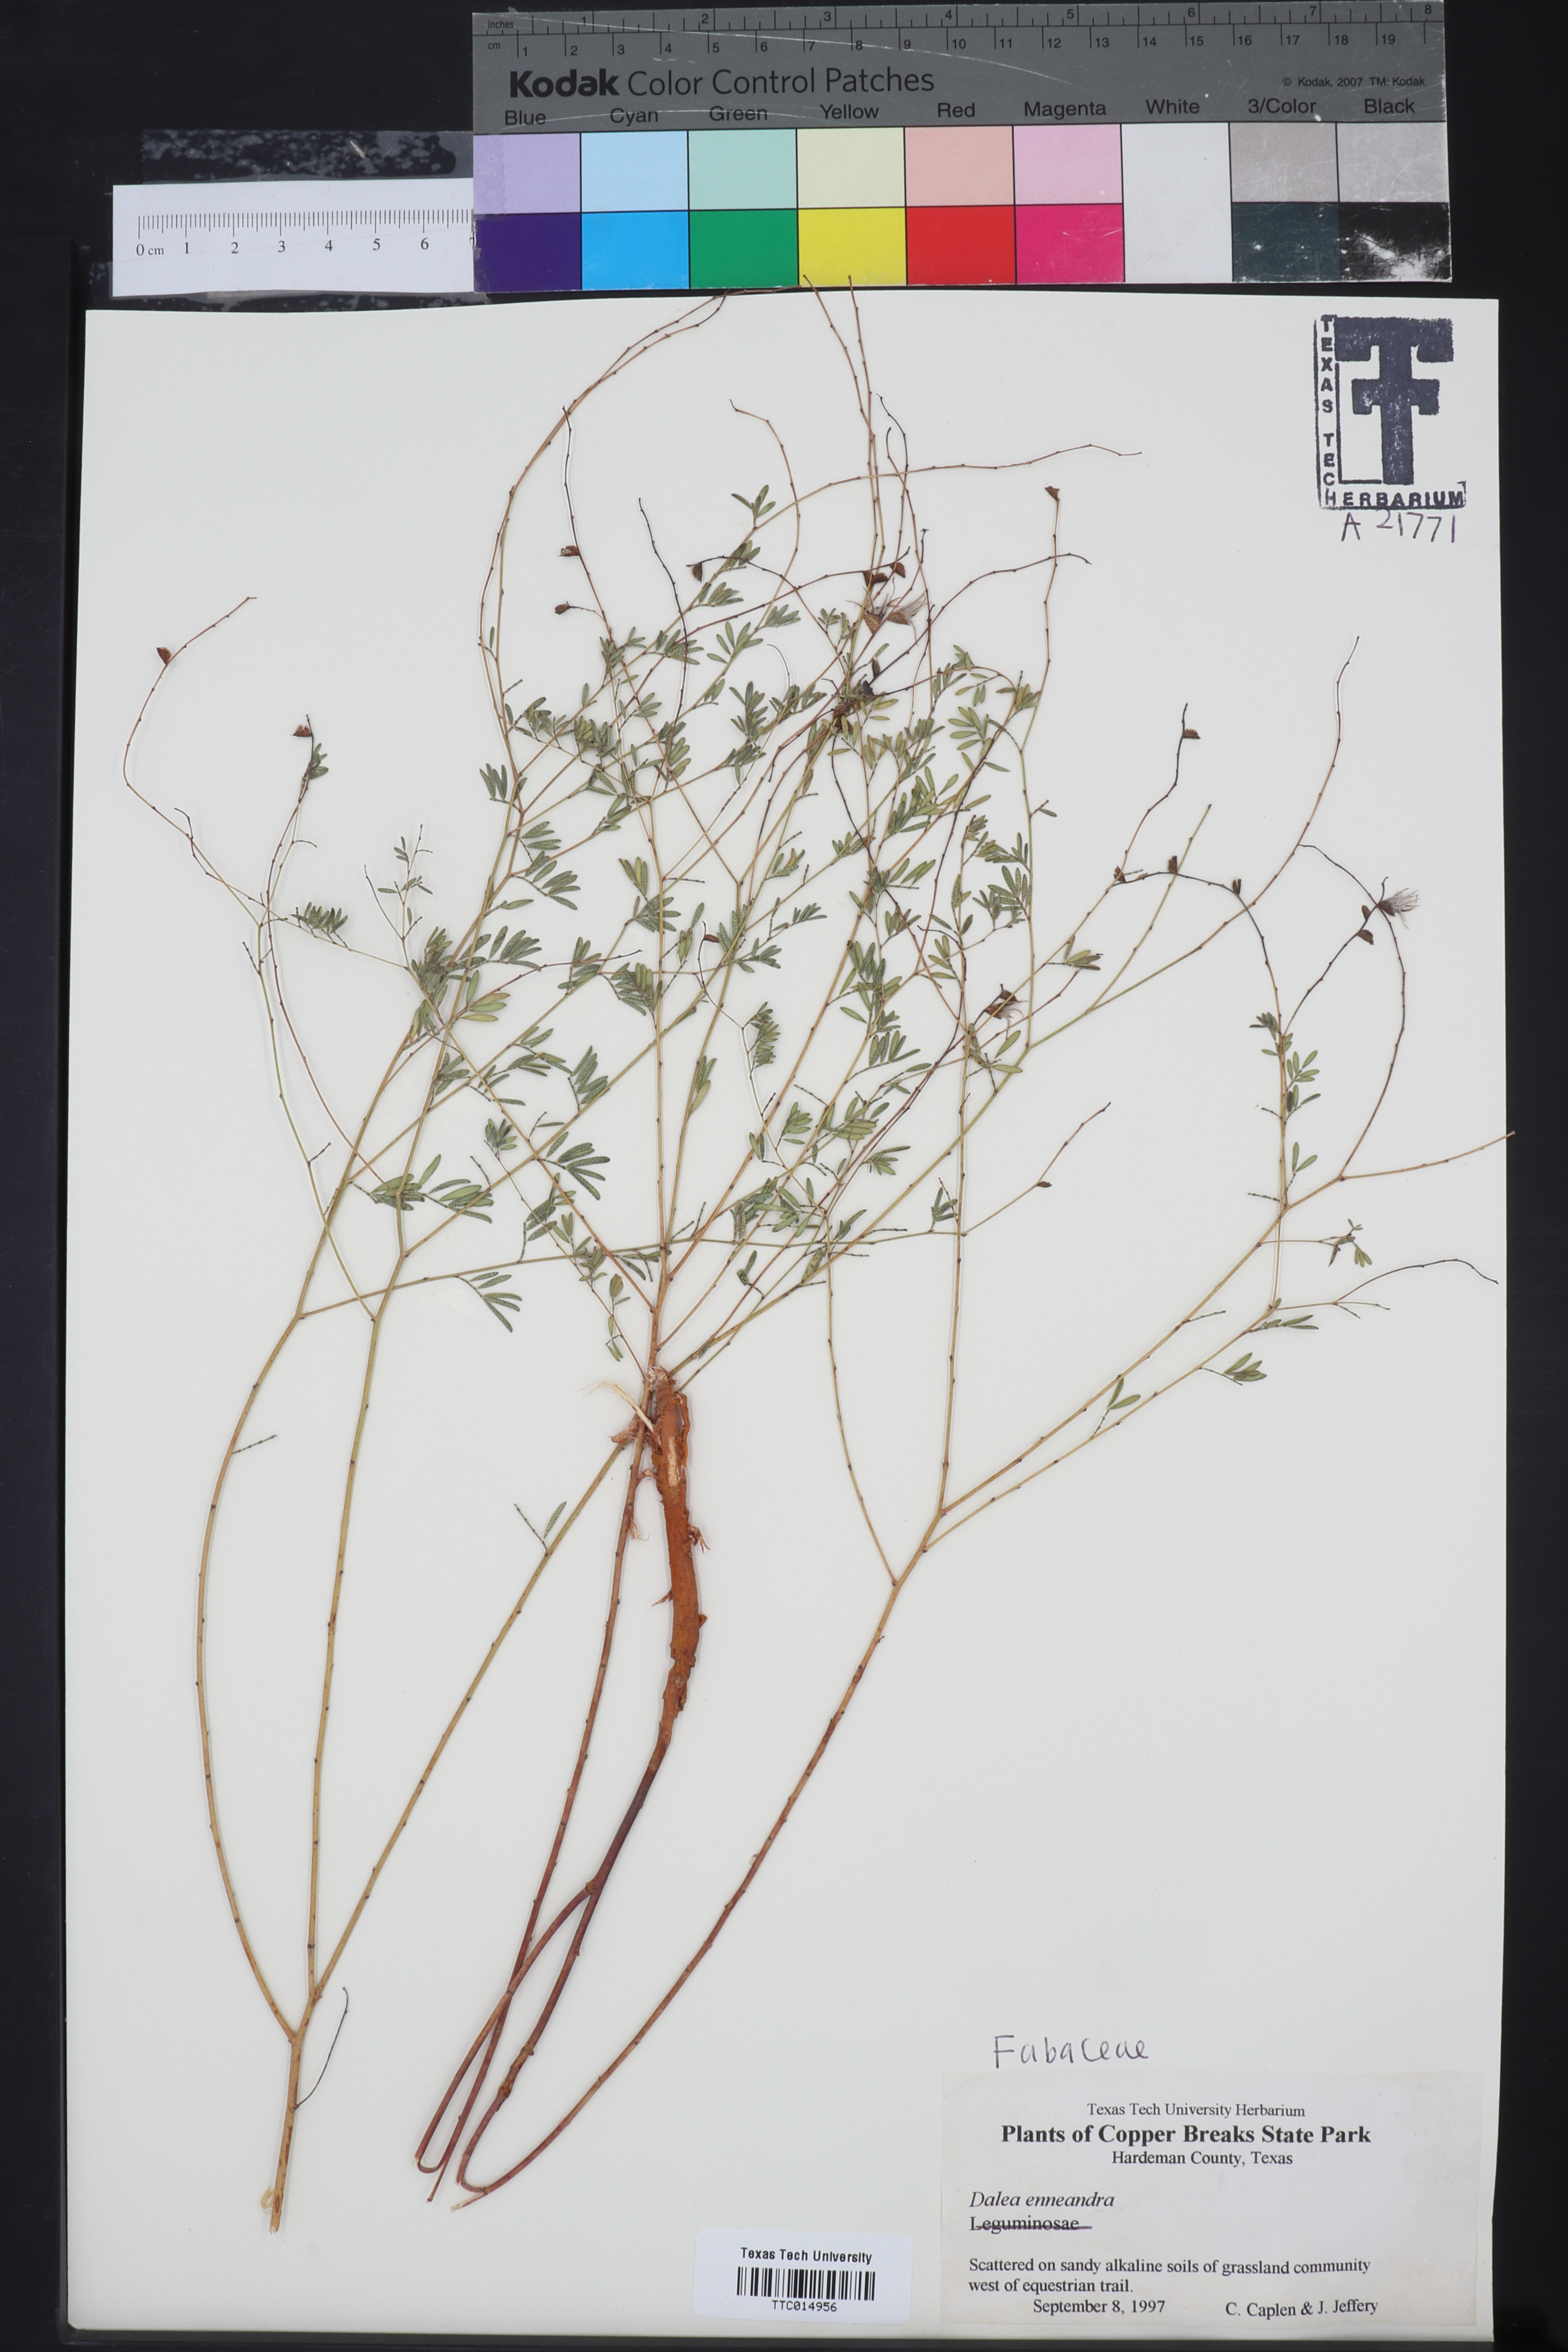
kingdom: Plantae
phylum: Tracheophyta
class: Magnoliopsida
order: Fabales
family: Fabaceae
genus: Dalea
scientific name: Dalea enneandra
